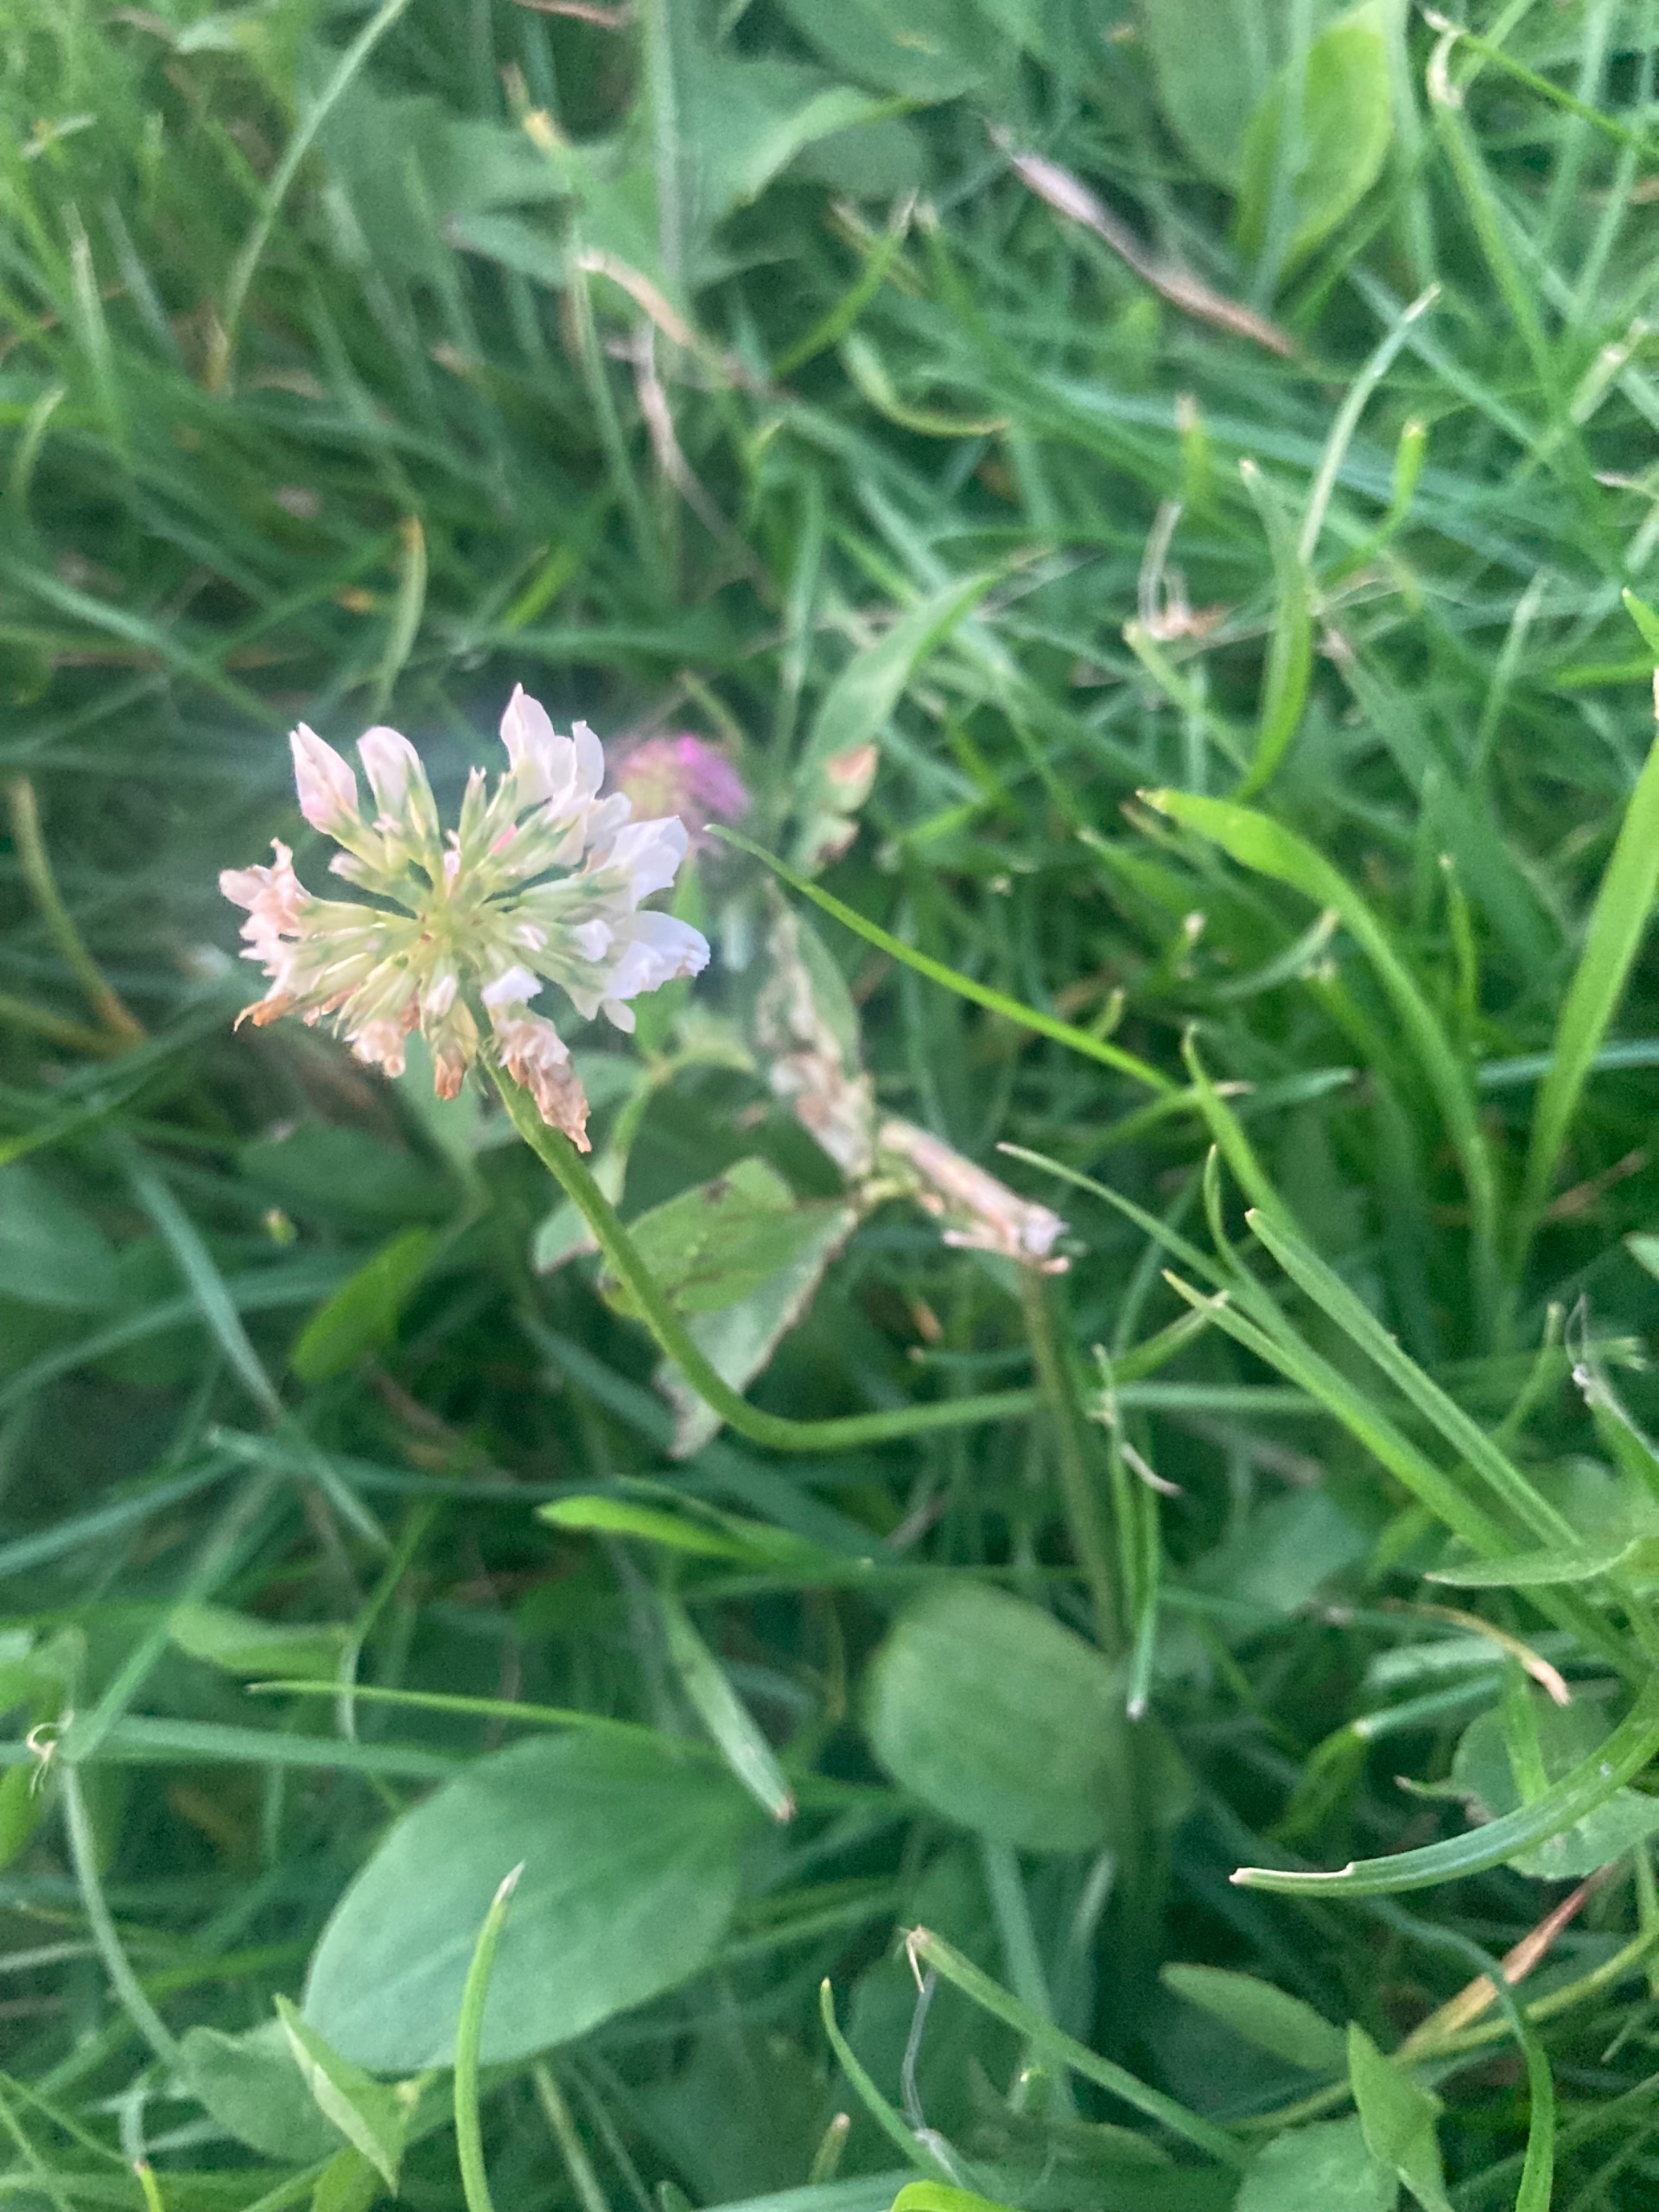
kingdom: Plantae
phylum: Tracheophyta
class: Magnoliopsida
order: Fabales
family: Fabaceae
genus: Trifolium
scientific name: Trifolium repens
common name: Hvid-kløver
